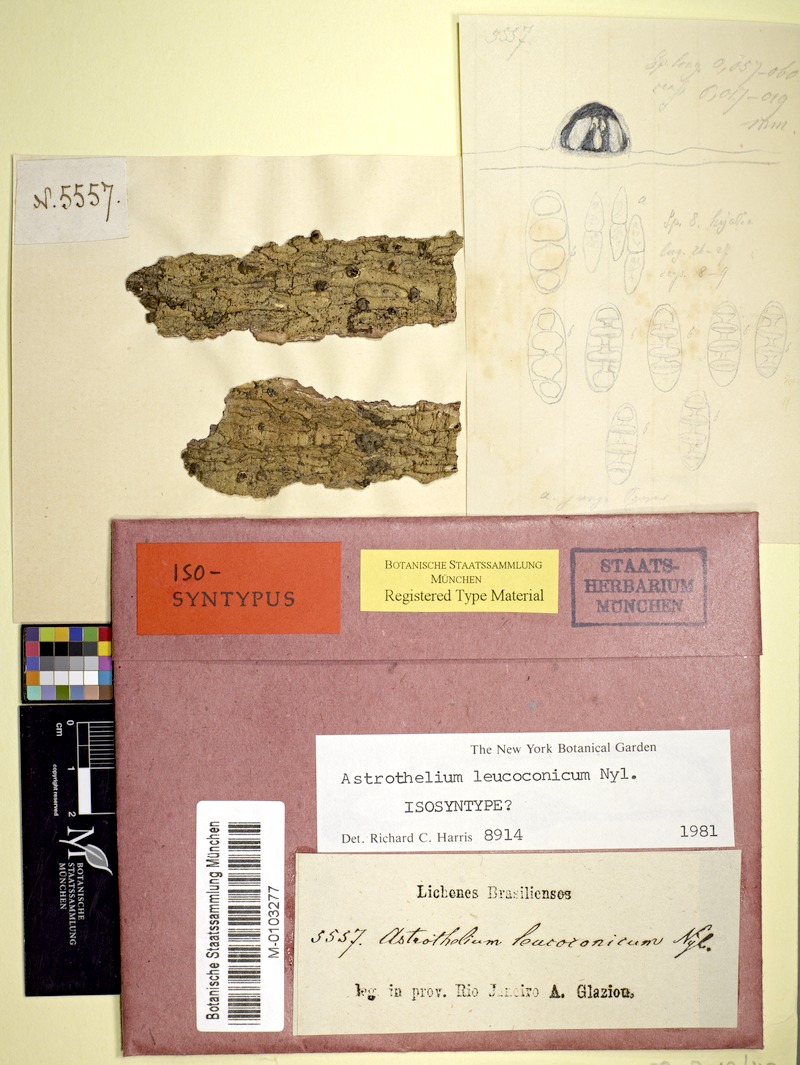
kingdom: Fungi
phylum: Ascomycota
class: Dothideomycetes
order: Trypetheliales
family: Trypetheliaceae
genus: Astrothelium
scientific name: Astrothelium leucoconicum
